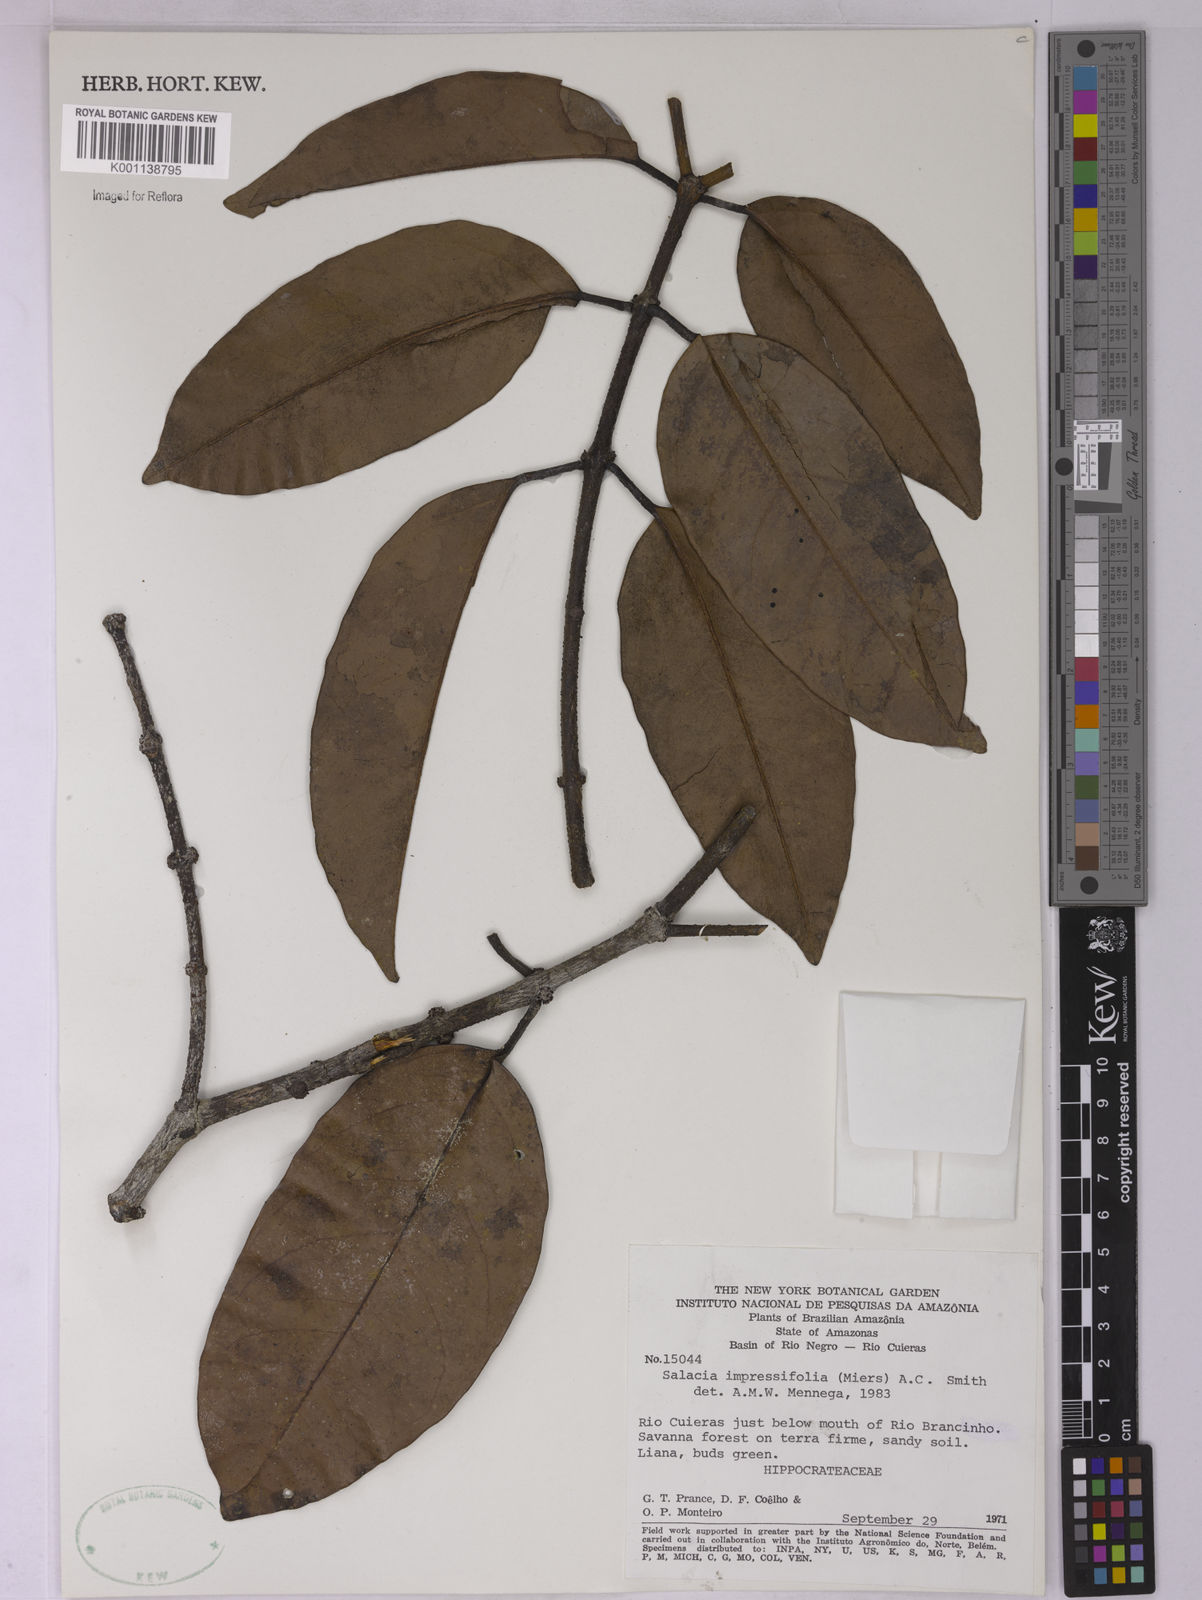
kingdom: Plantae
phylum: Tracheophyta
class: Magnoliopsida
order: Celastrales
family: Celastraceae
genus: Salacia
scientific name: Salacia impressifolia
